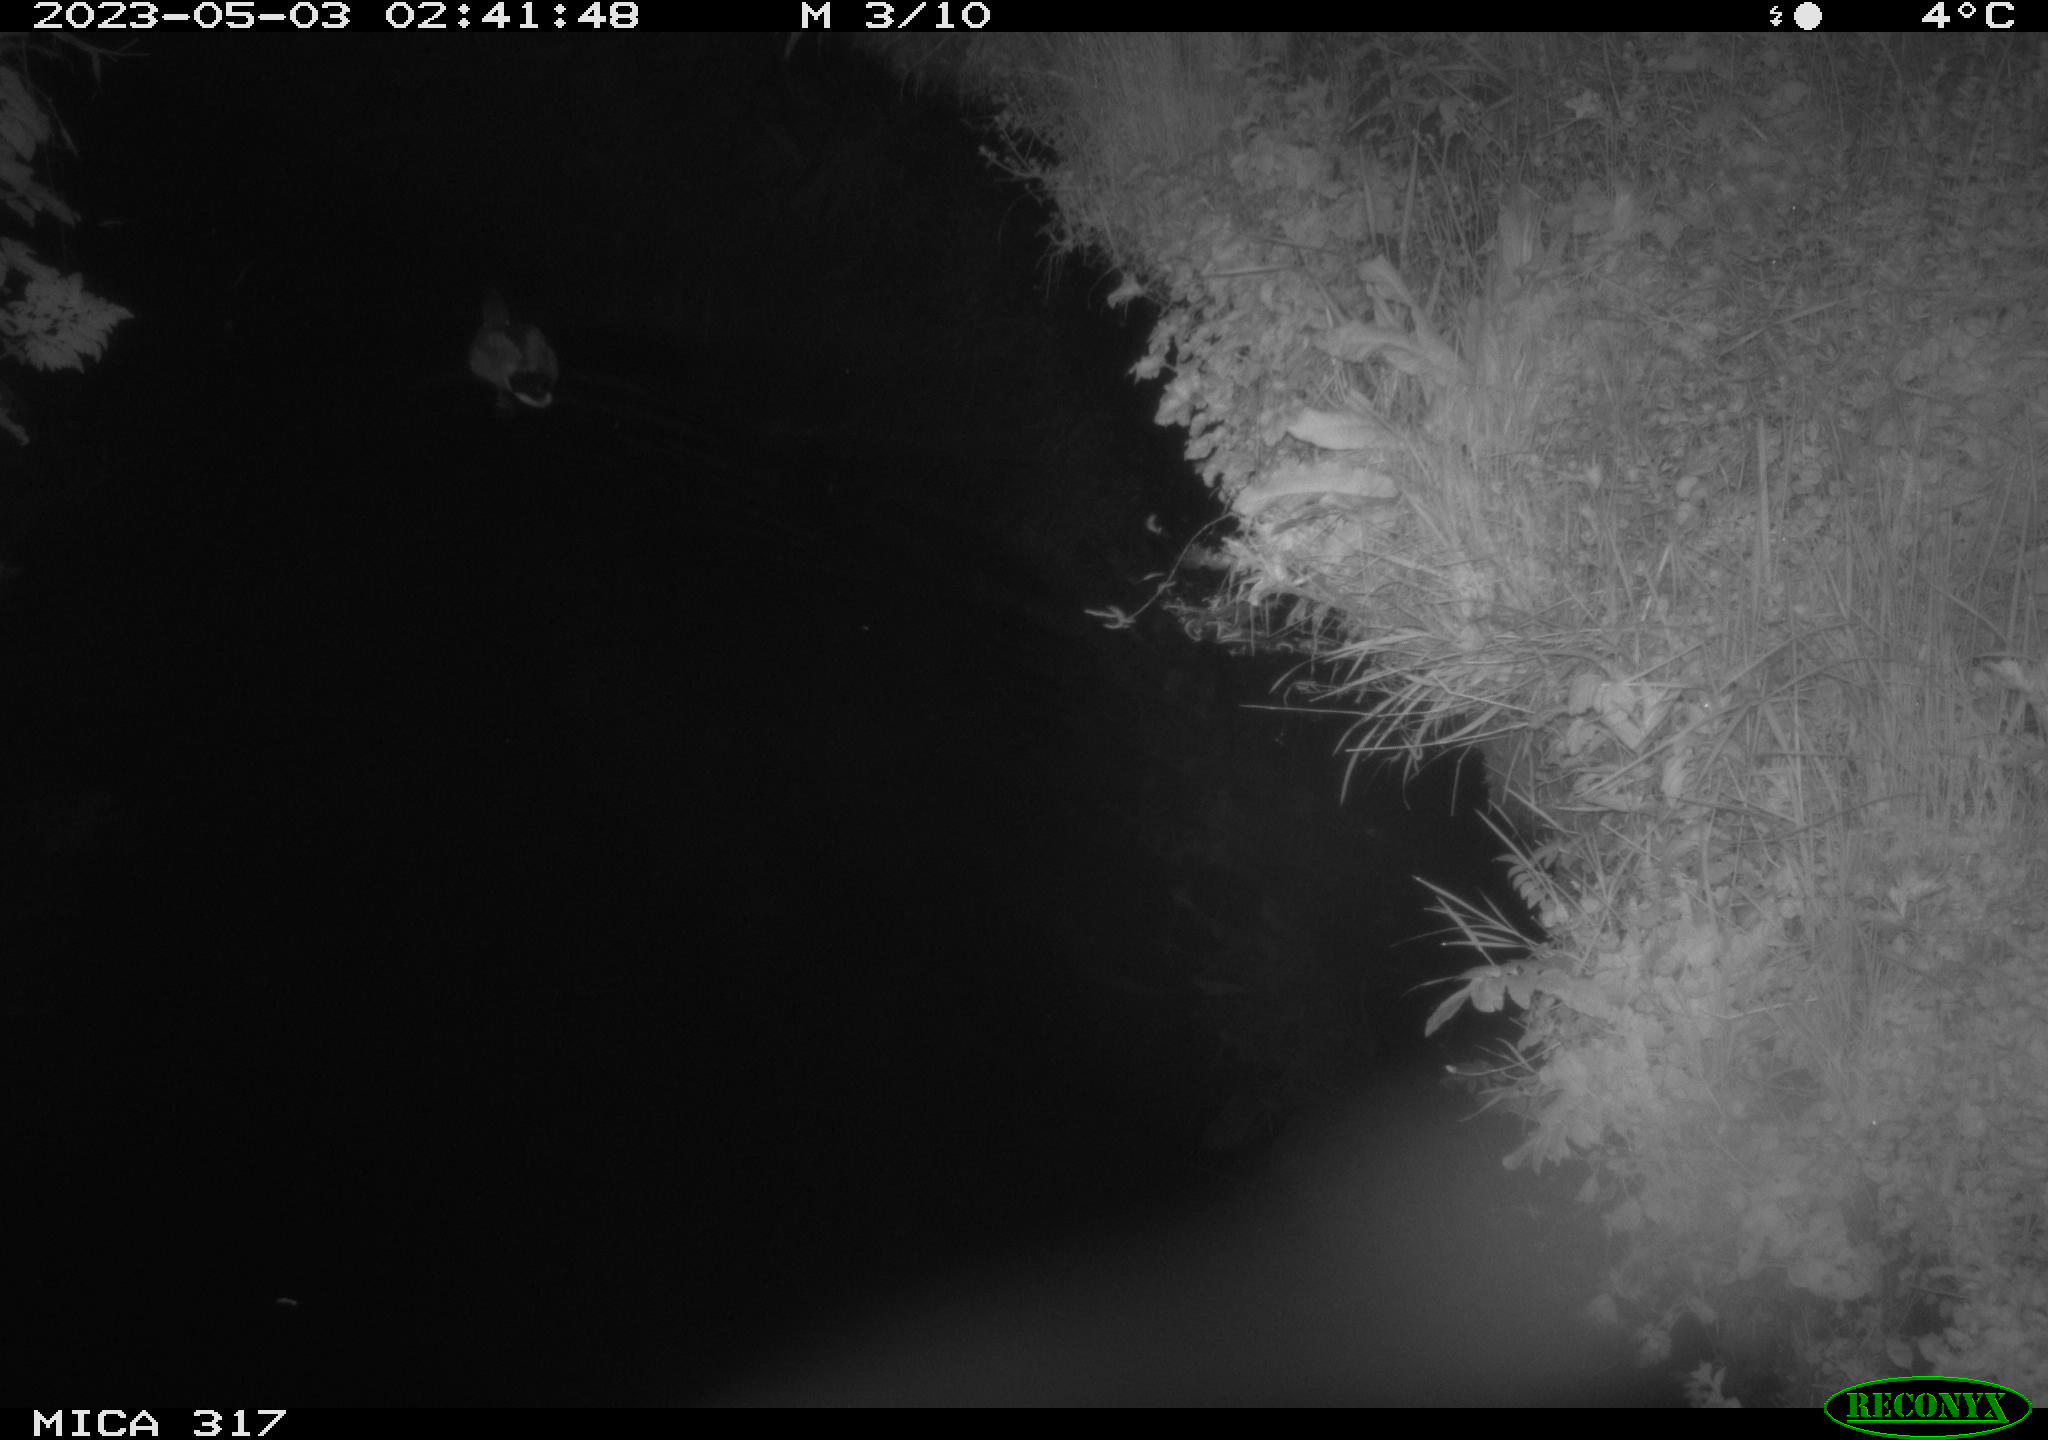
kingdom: Animalia
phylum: Chordata
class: Aves
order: Anseriformes
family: Anatidae
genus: Anas
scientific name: Anas
